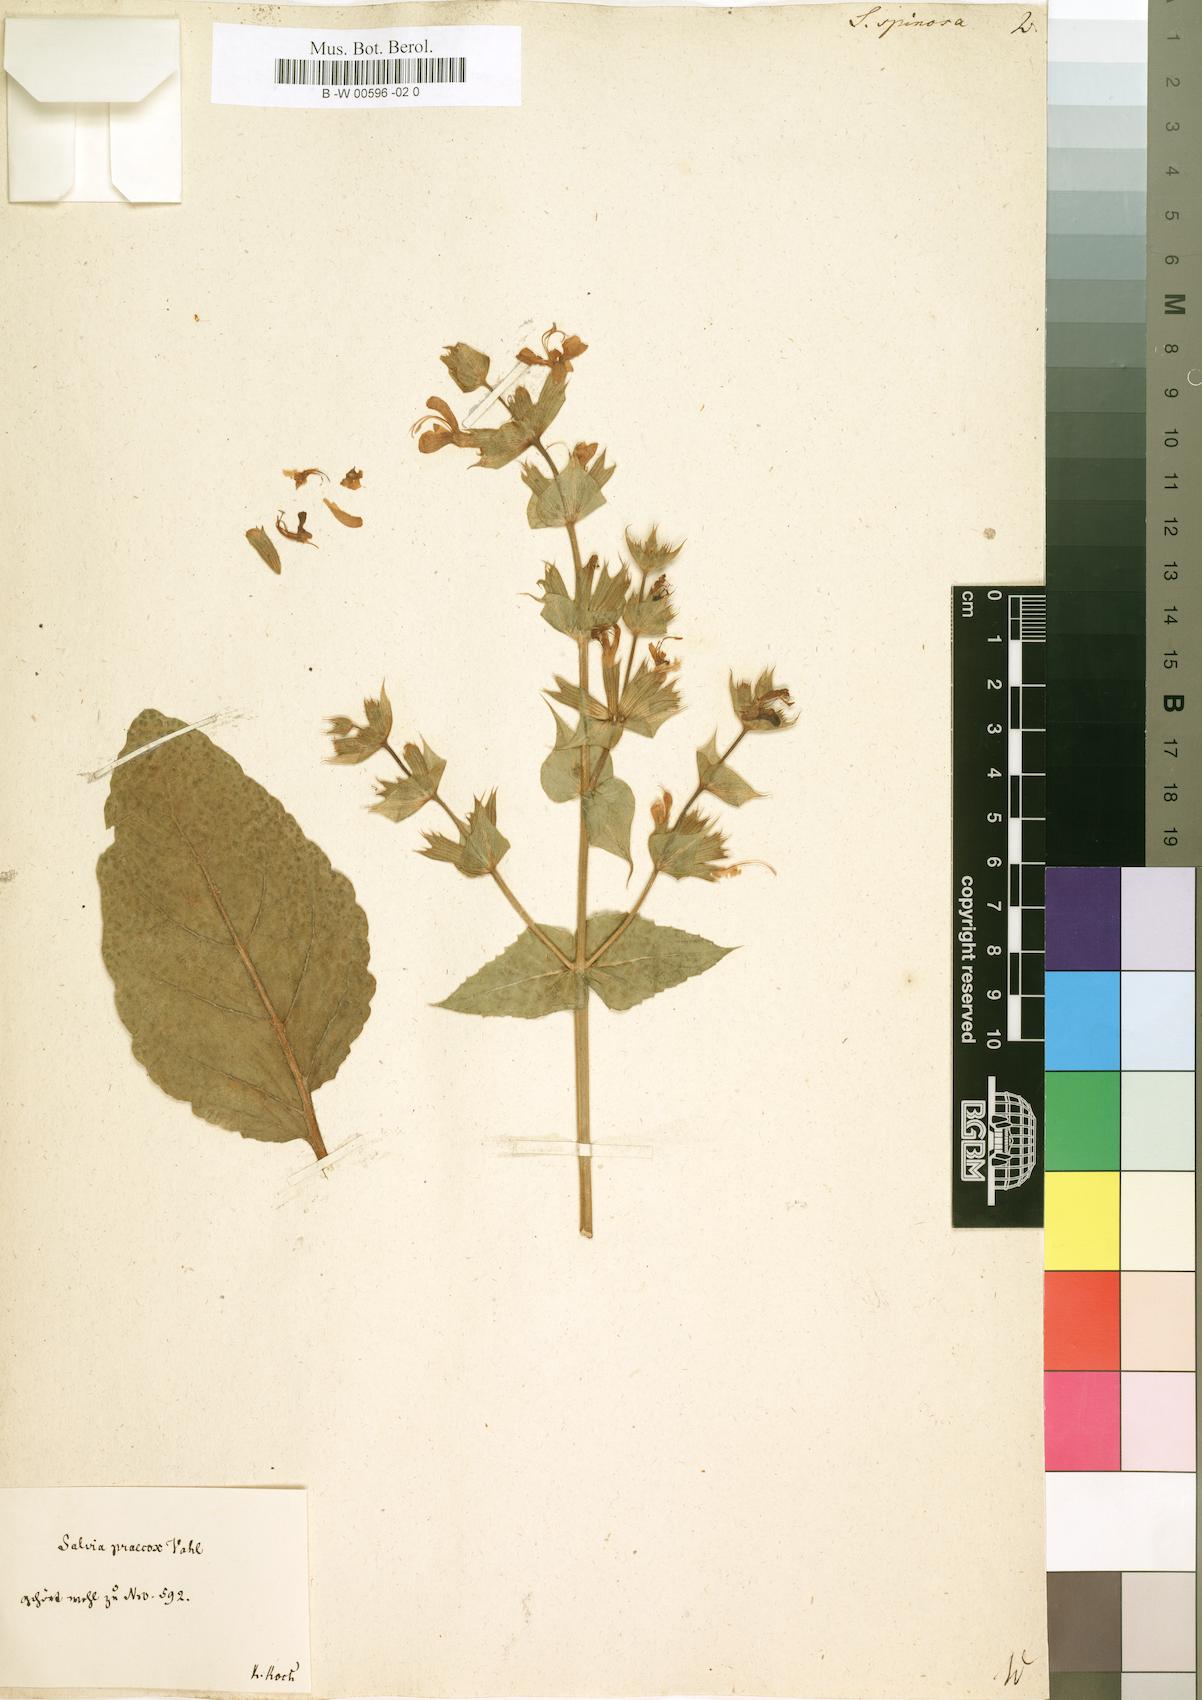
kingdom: Plantae
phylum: Tracheophyta
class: Magnoliopsida
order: Lamiales
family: Lamiaceae
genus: Salvia
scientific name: Salvia spinosa
